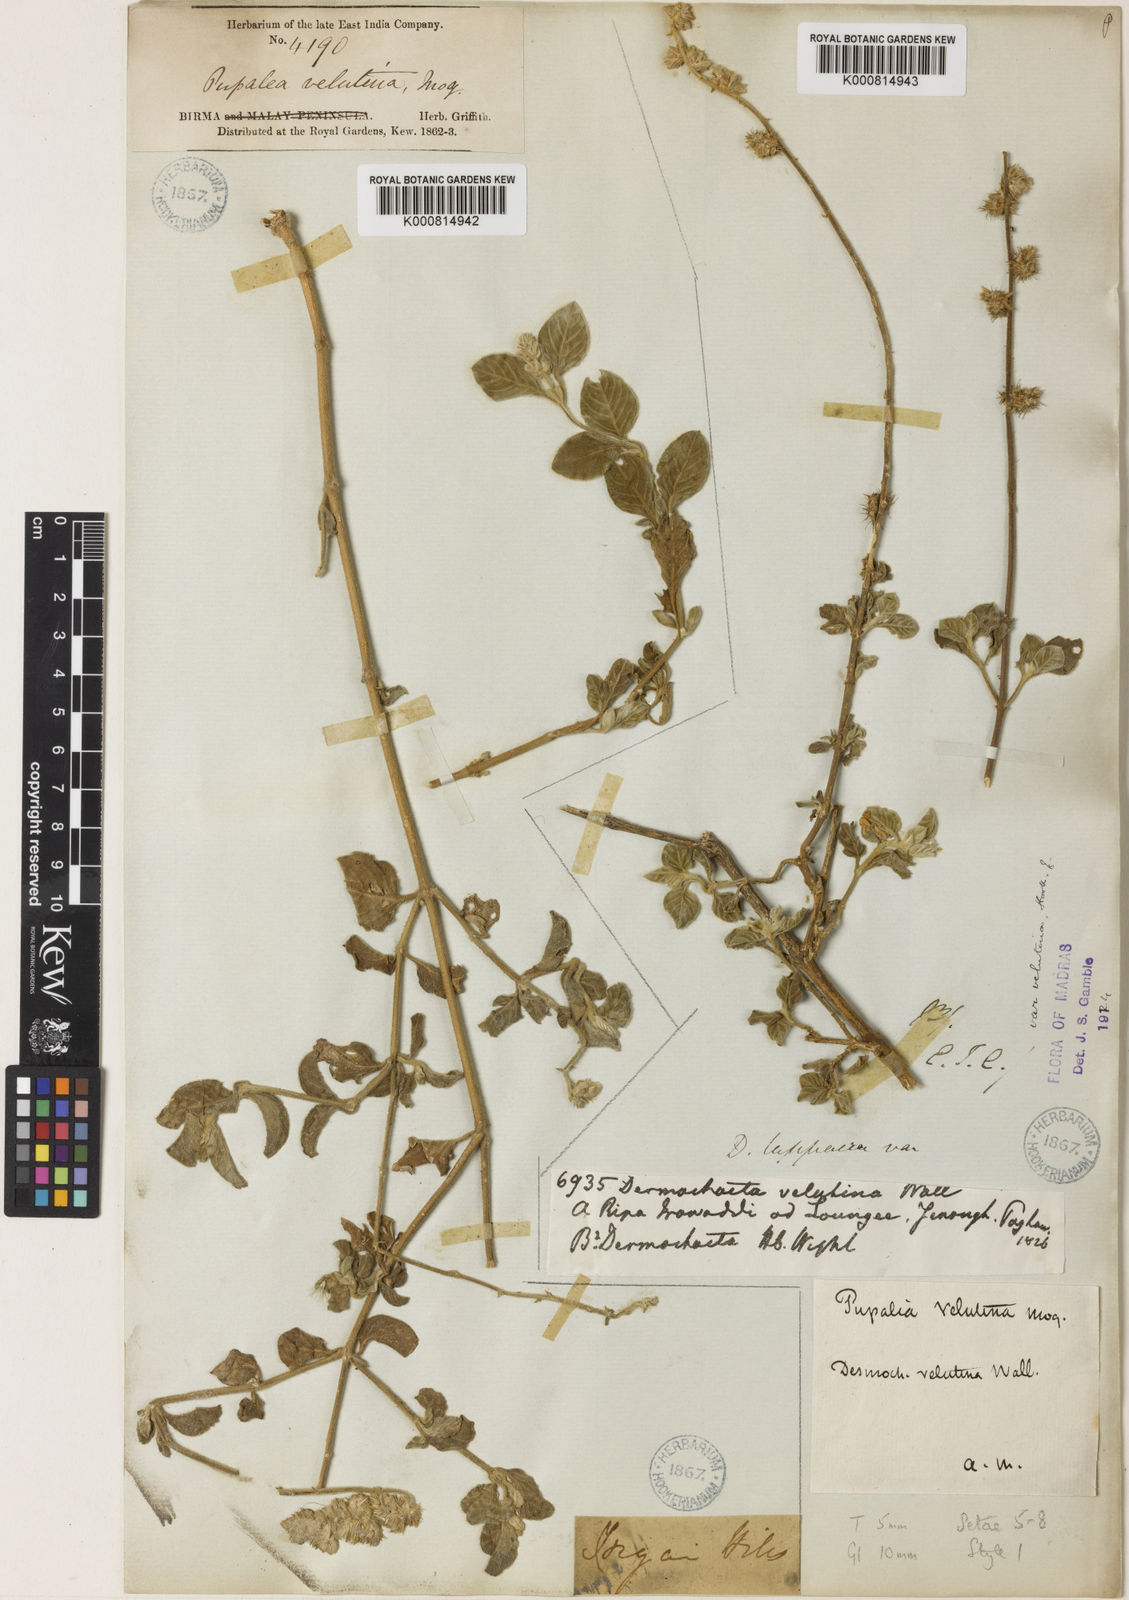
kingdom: Plantae
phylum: Tracheophyta
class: Magnoliopsida
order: Caryophyllales
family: Amaranthaceae
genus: Pupalia
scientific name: Pupalia lappacea
